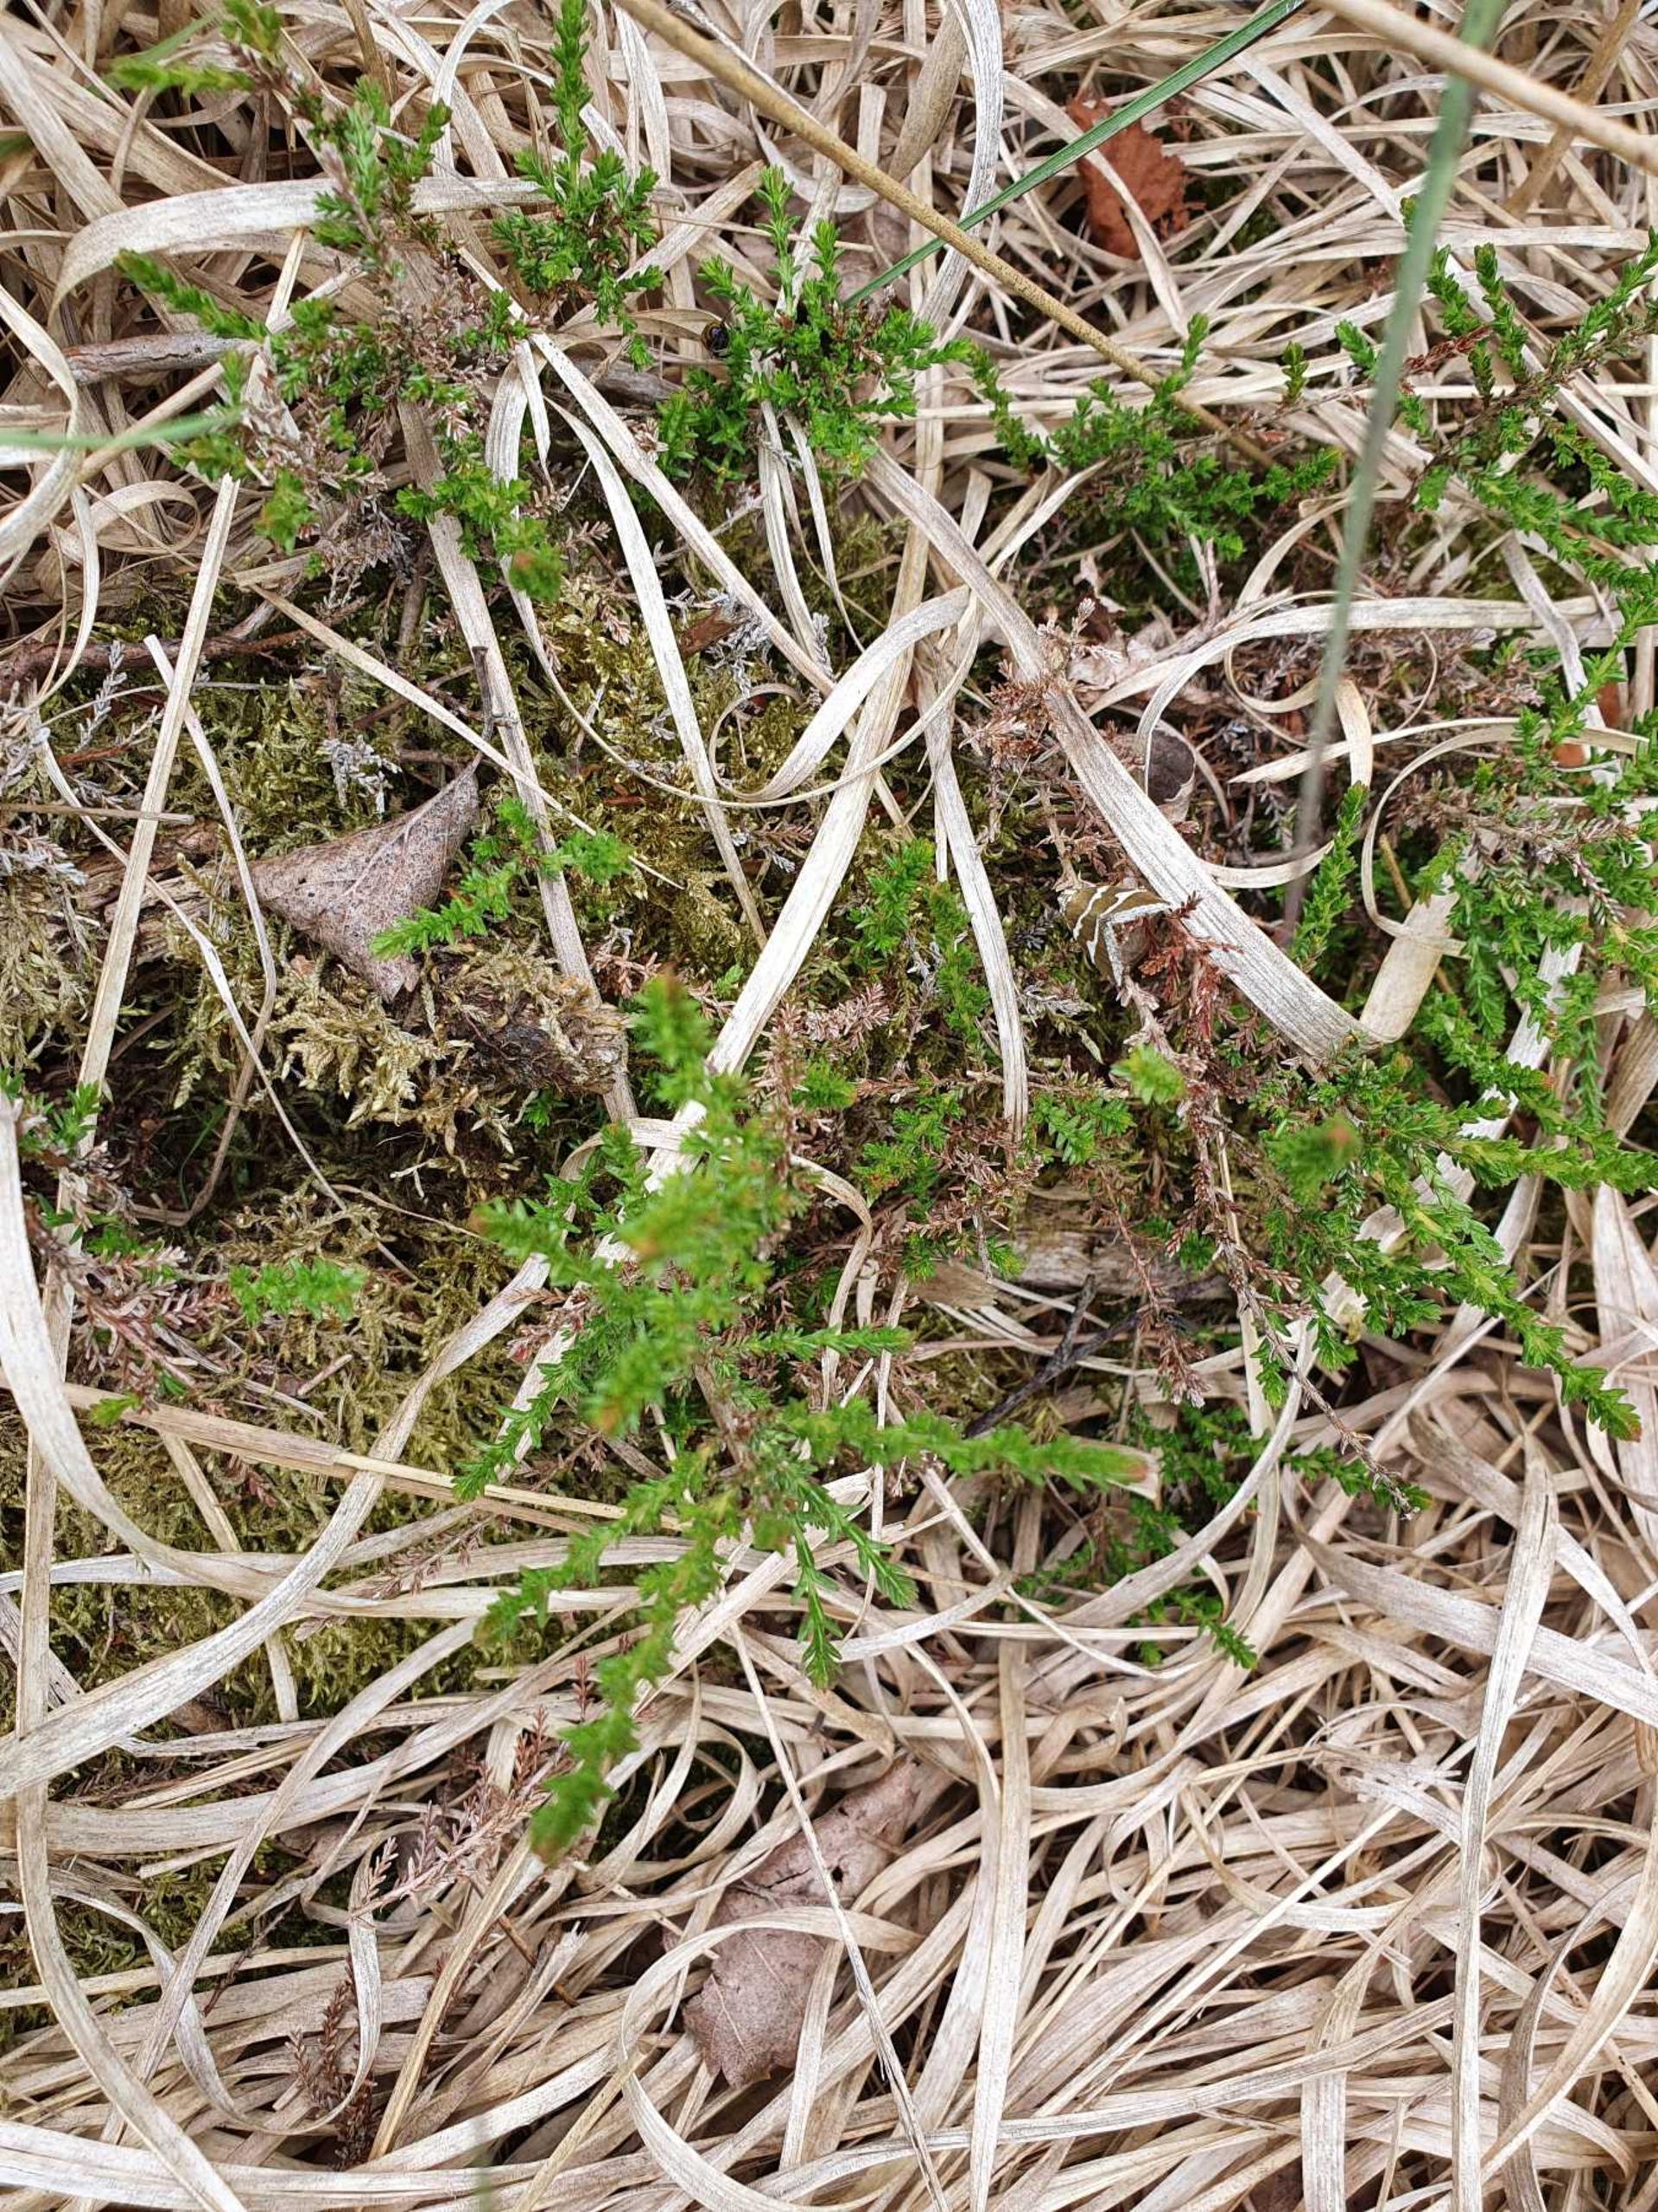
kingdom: Plantae
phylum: Tracheophyta
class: Magnoliopsida
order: Ericales
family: Ericaceae
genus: Calluna
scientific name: Calluna vulgaris
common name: Hedelyng
